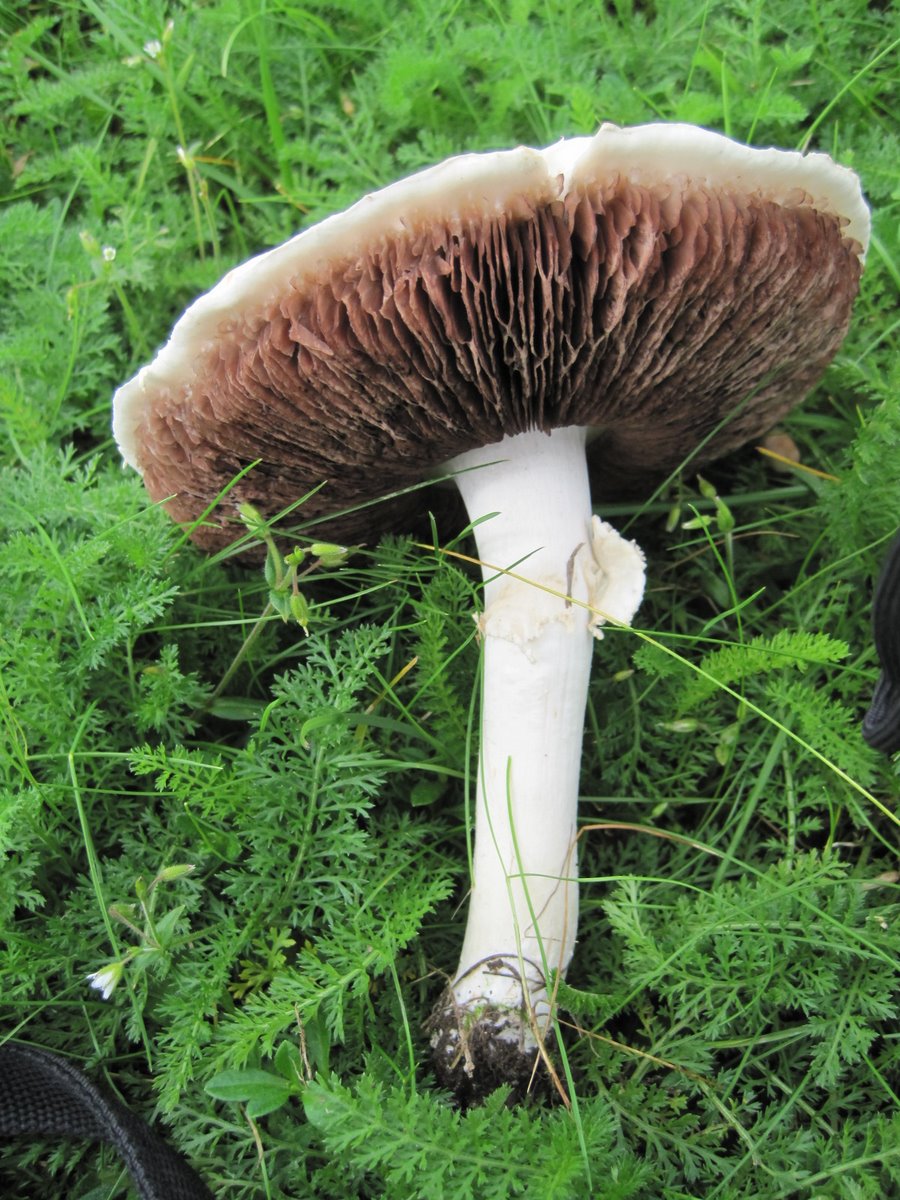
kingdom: Fungi
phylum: Basidiomycota
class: Agaricomycetes
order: Agaricales
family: Agaricaceae
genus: Agaricus
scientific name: Agaricus campestris
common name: mark-champignon
